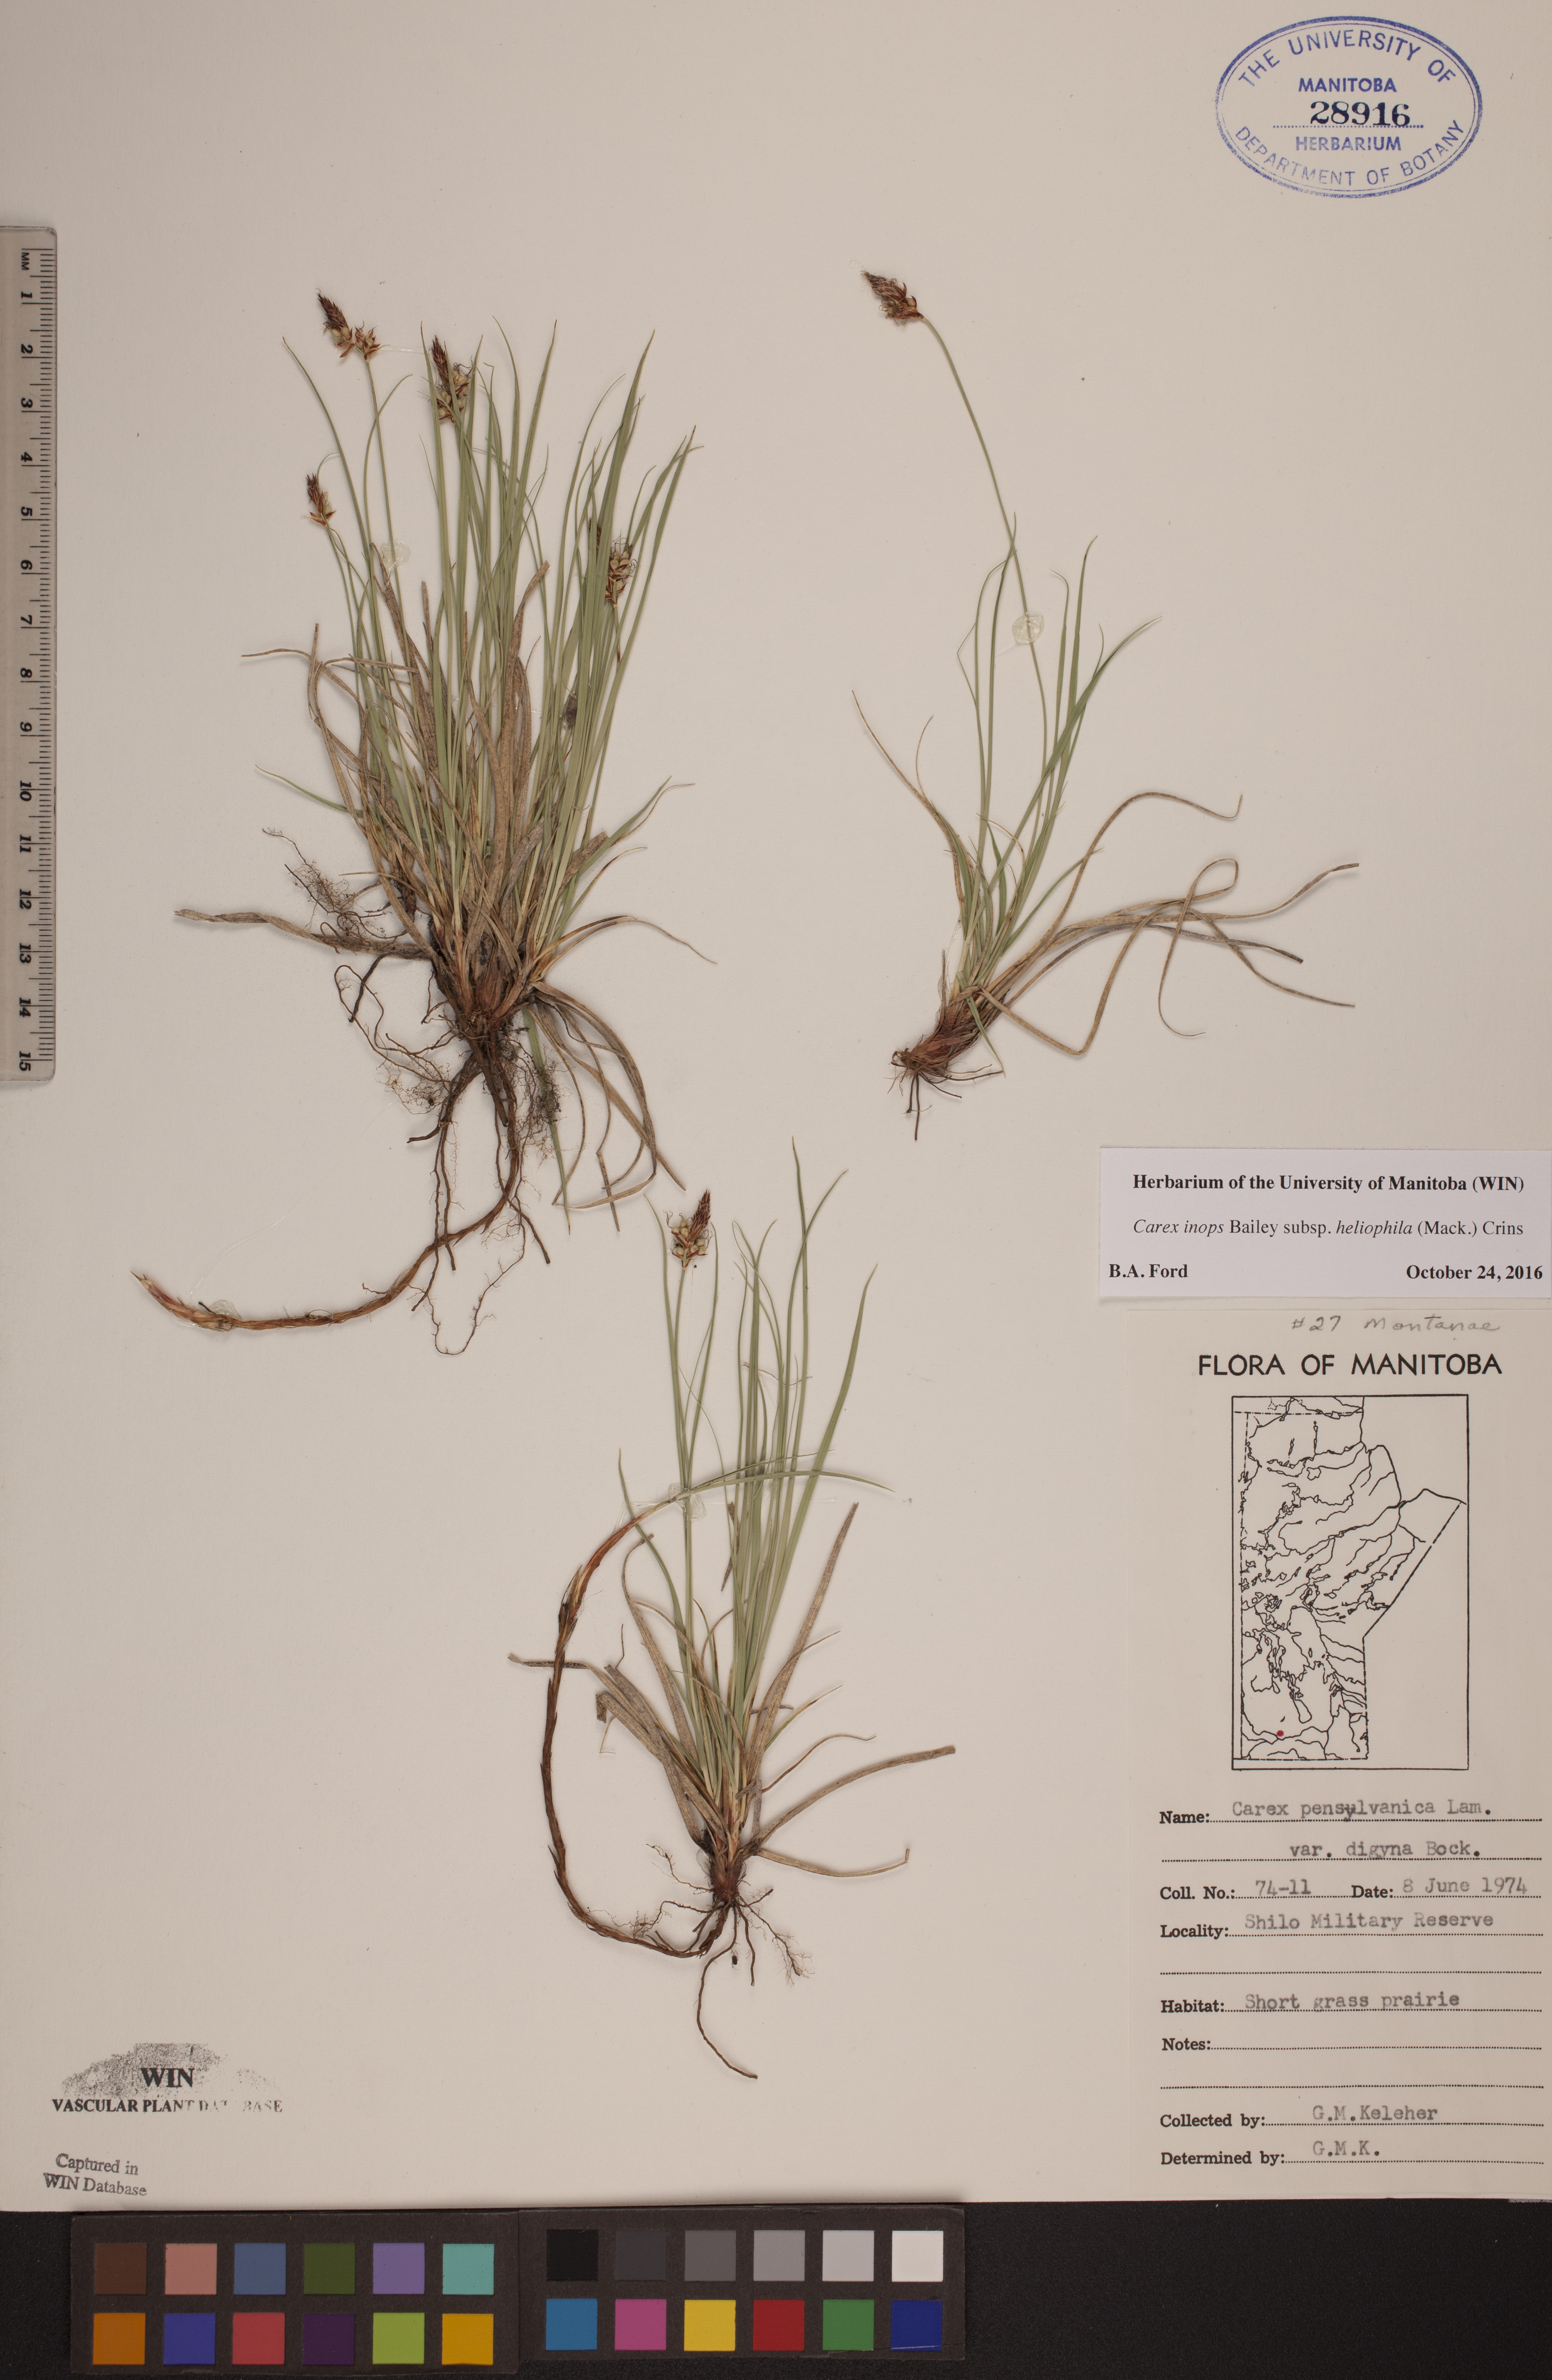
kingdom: Plantae
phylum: Tracheophyta
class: Liliopsida
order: Poales
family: Cyperaceae
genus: Carex
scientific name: Carex inops
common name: Long-stolon sedge
